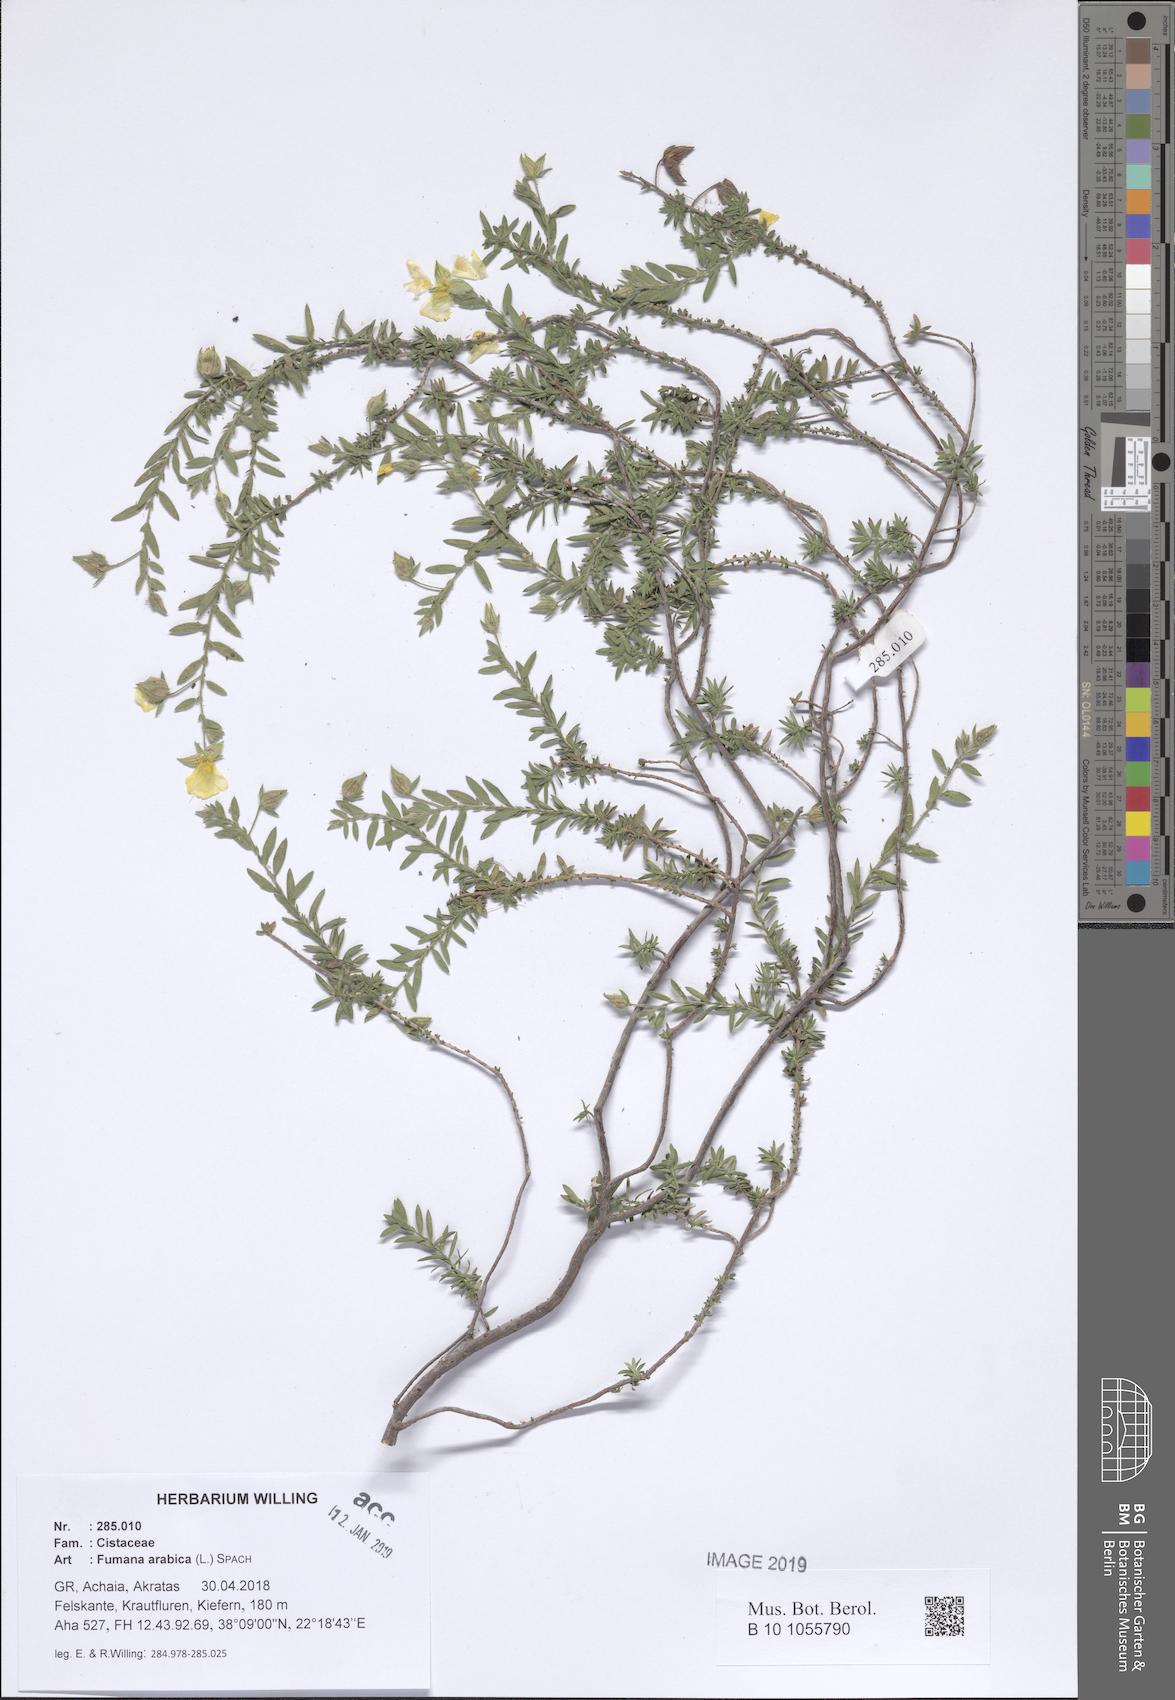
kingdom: Plantae
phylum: Tracheophyta
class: Magnoliopsida
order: Malvales
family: Cistaceae
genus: Fumana
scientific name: Fumana arabica
